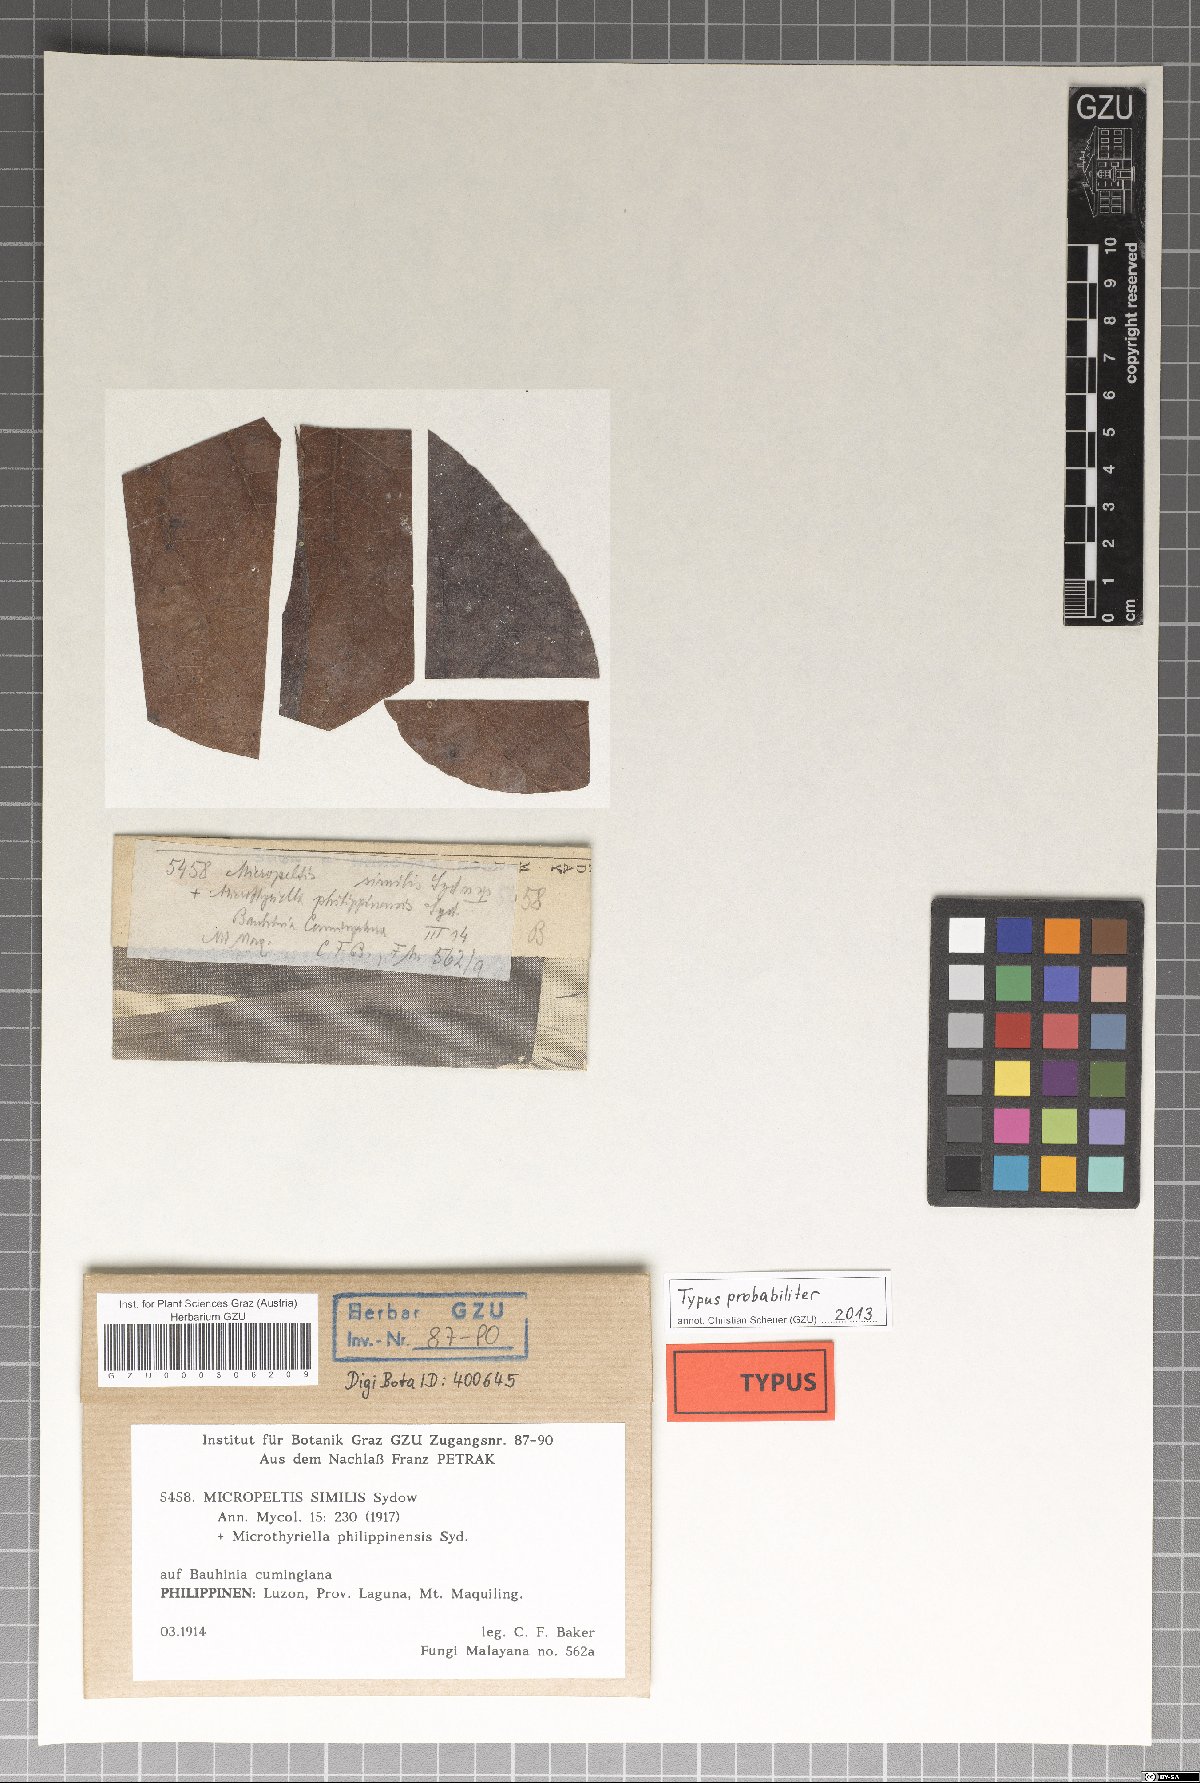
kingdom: Fungi
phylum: Ascomycota
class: Dothideomycetes
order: Microthyriales
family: Micropeltidaceae
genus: Micropeltis
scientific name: Micropeltis similis
